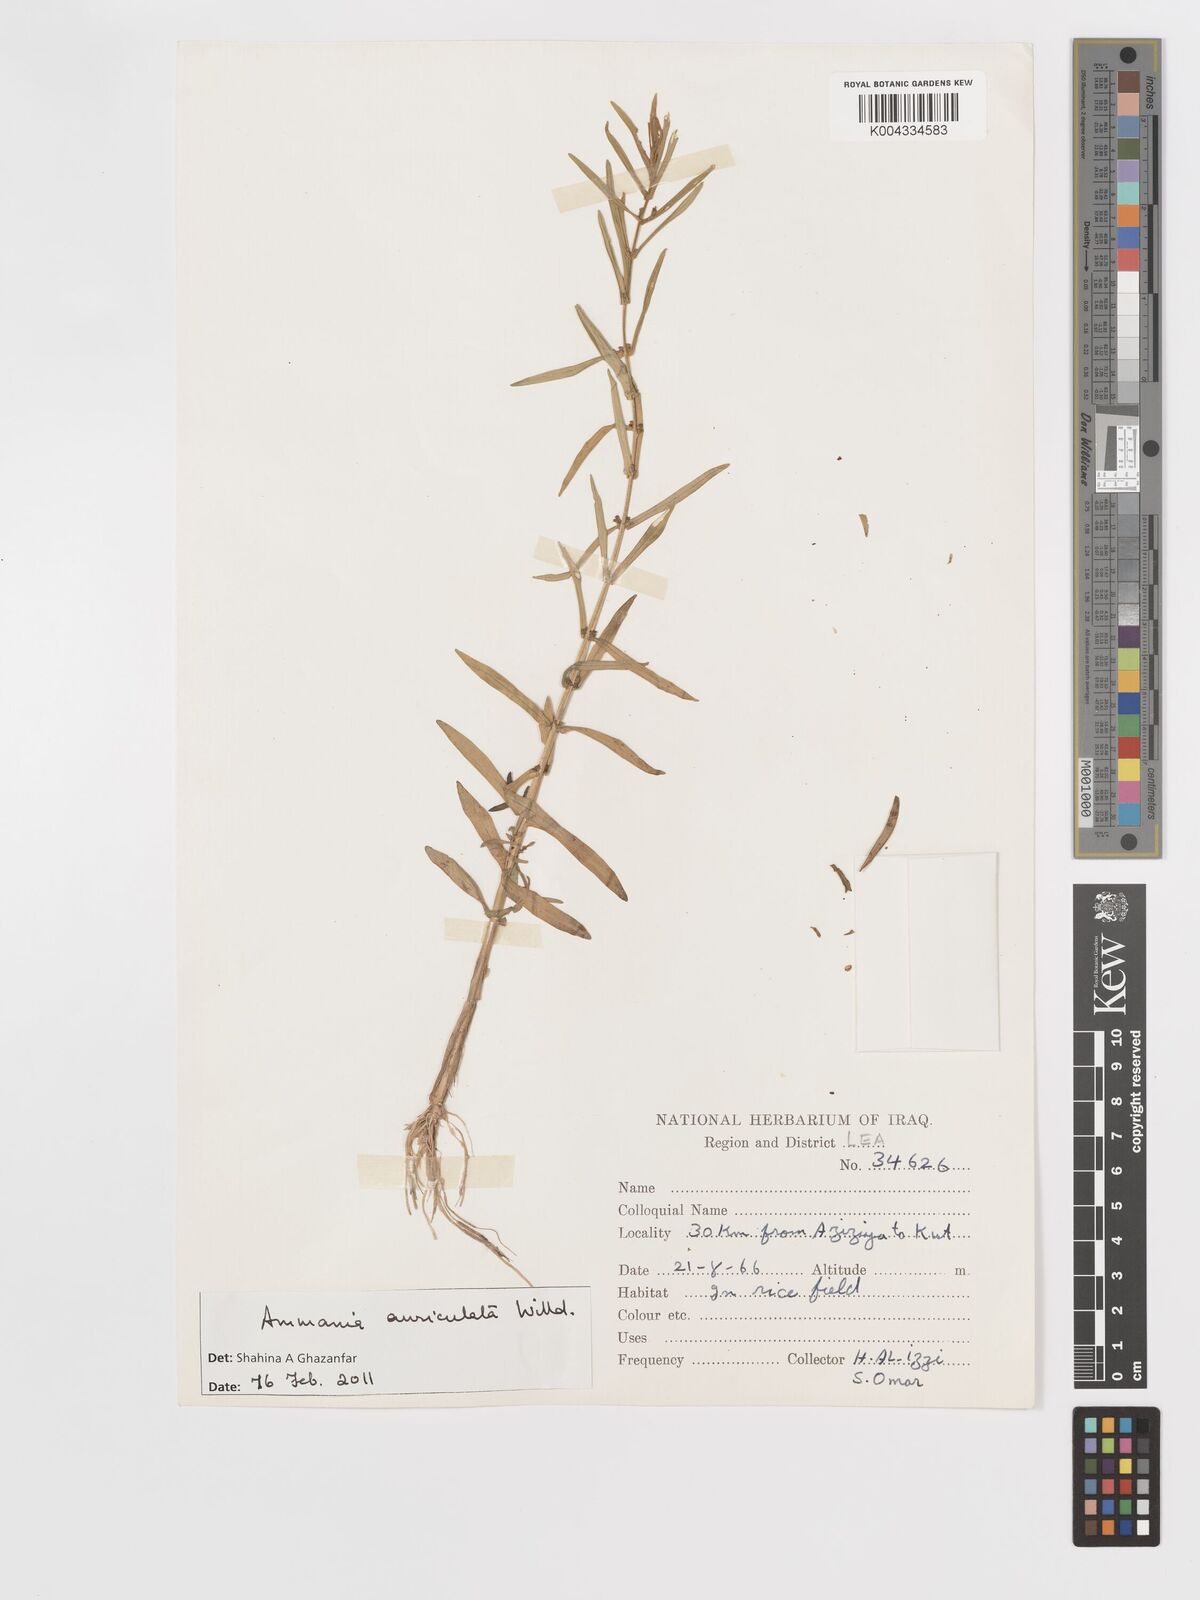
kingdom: Plantae
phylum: Tracheophyta
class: Magnoliopsida
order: Myrtales
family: Lythraceae
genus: Ammannia
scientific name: Ammannia auriculata
